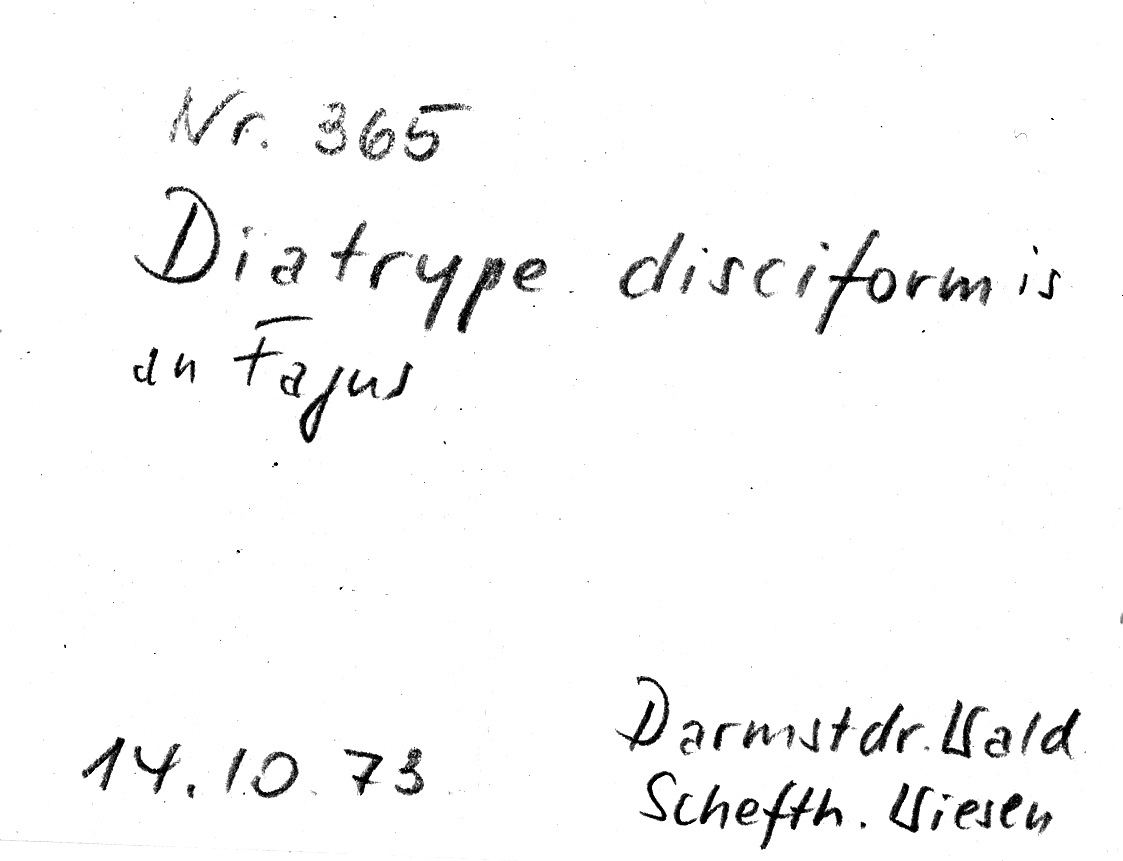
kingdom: Plantae
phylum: Tracheophyta
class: Magnoliopsida
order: Fagales
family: Fagaceae
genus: Fagus
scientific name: Fagus sylvatica
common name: Beech
